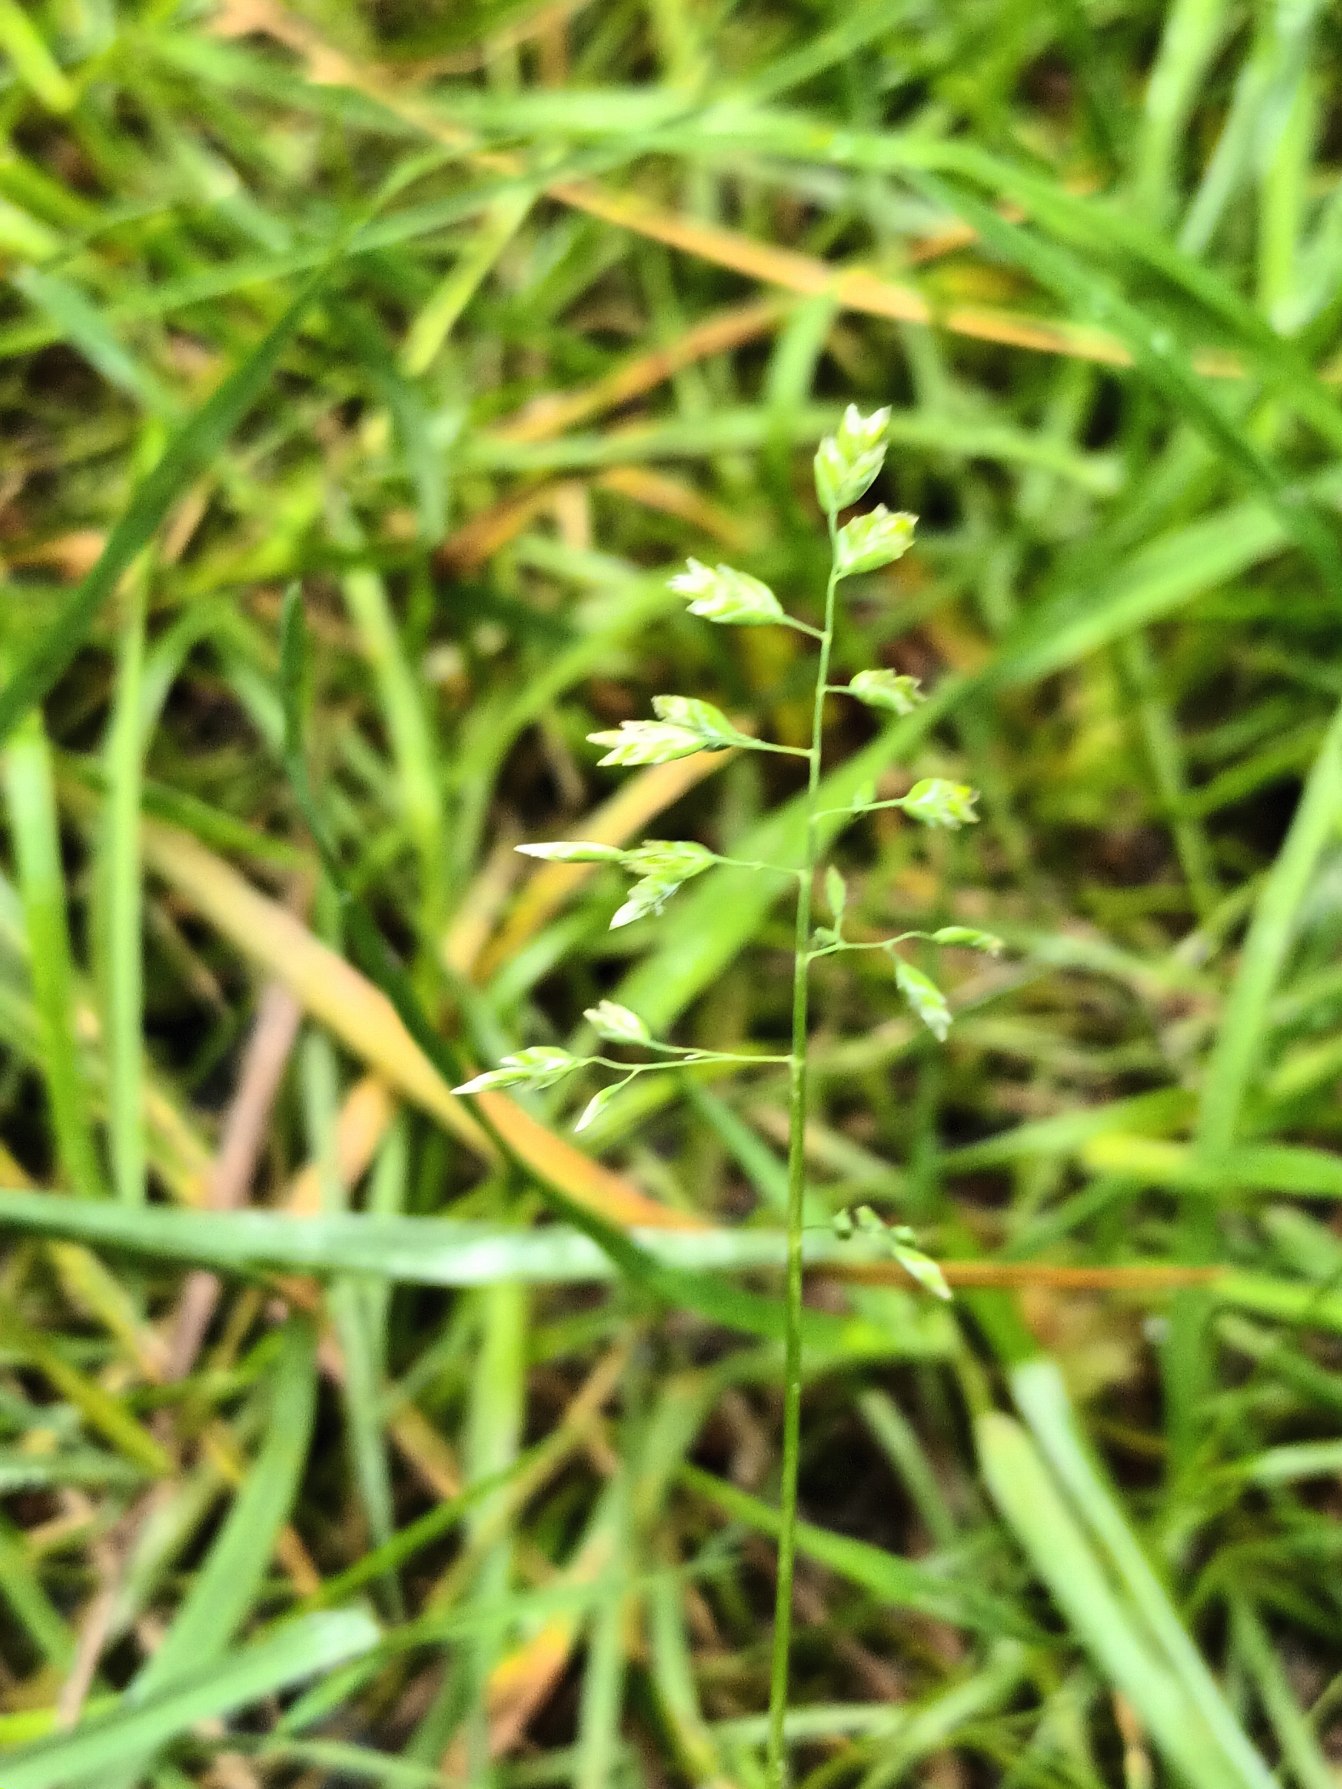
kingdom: Plantae
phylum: Tracheophyta
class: Liliopsida
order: Poales
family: Poaceae
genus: Poa
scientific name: Poa annua
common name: Enårig rapgræs
